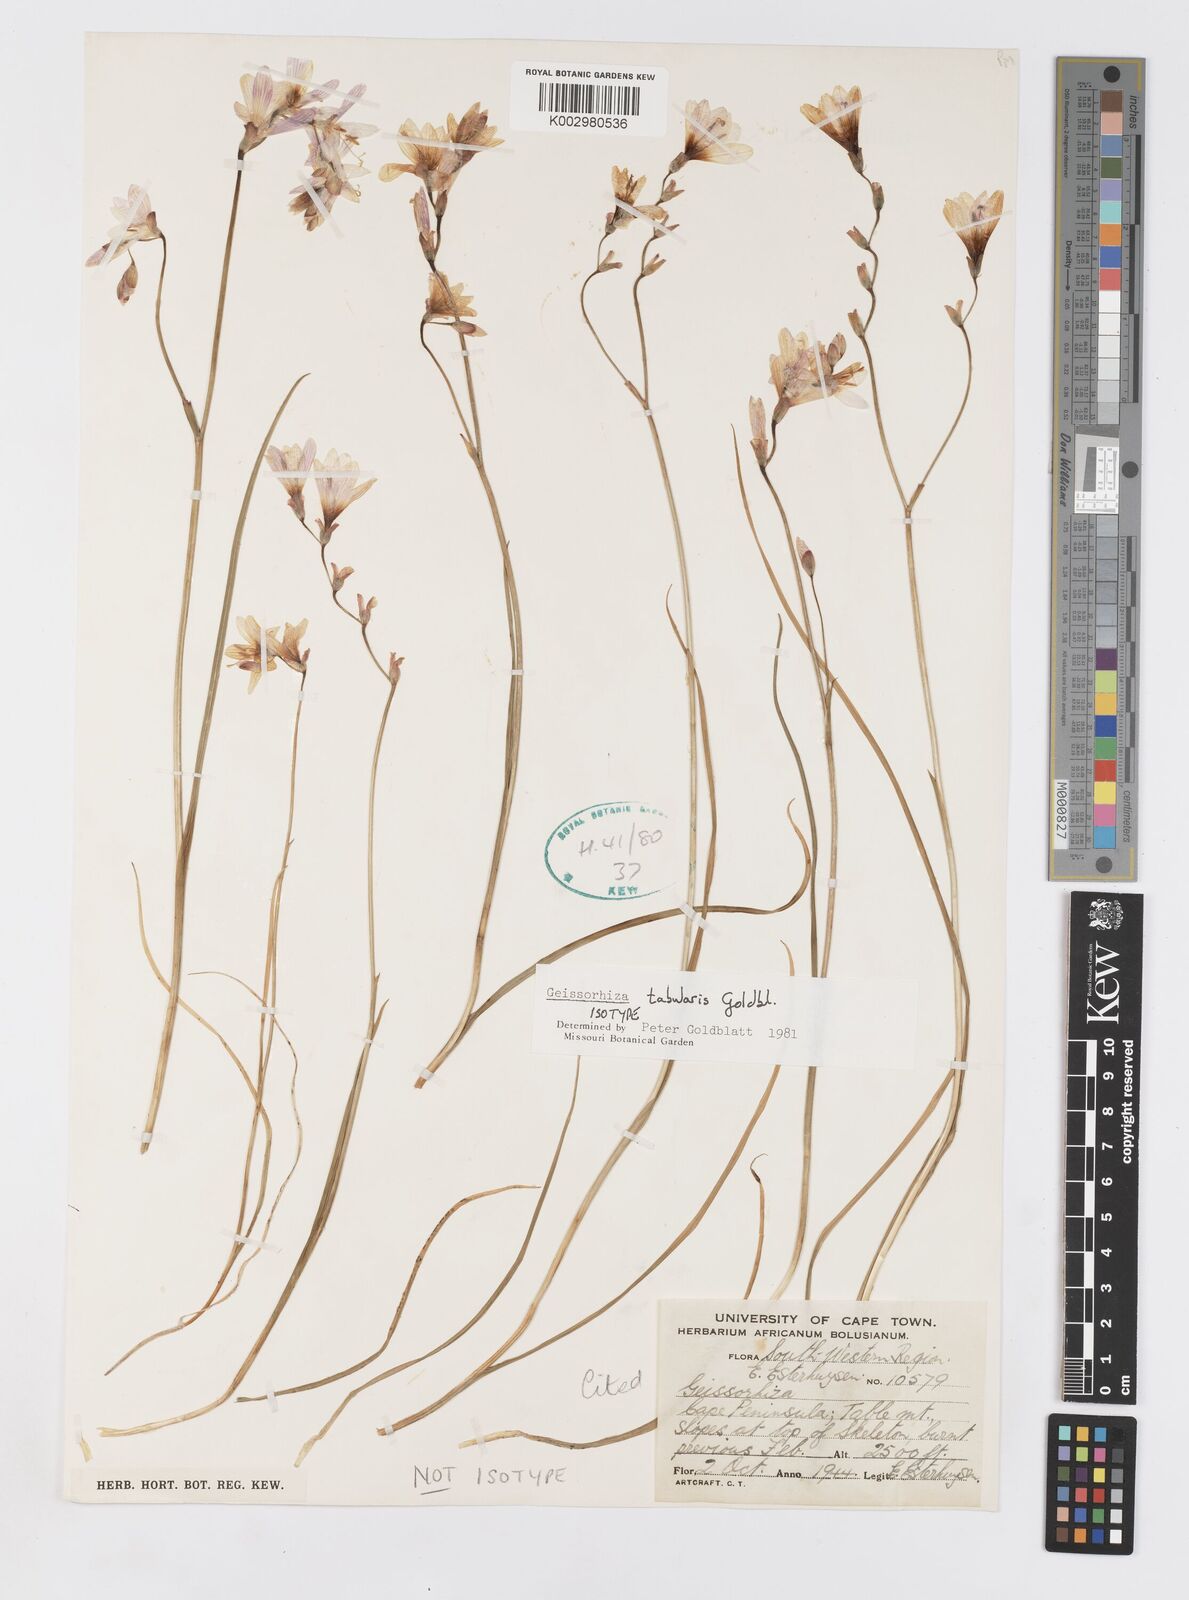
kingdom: Plantae
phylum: Tracheophyta
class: Liliopsida
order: Asparagales
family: Iridaceae
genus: Geissorhiza
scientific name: Geissorhiza tabularis
